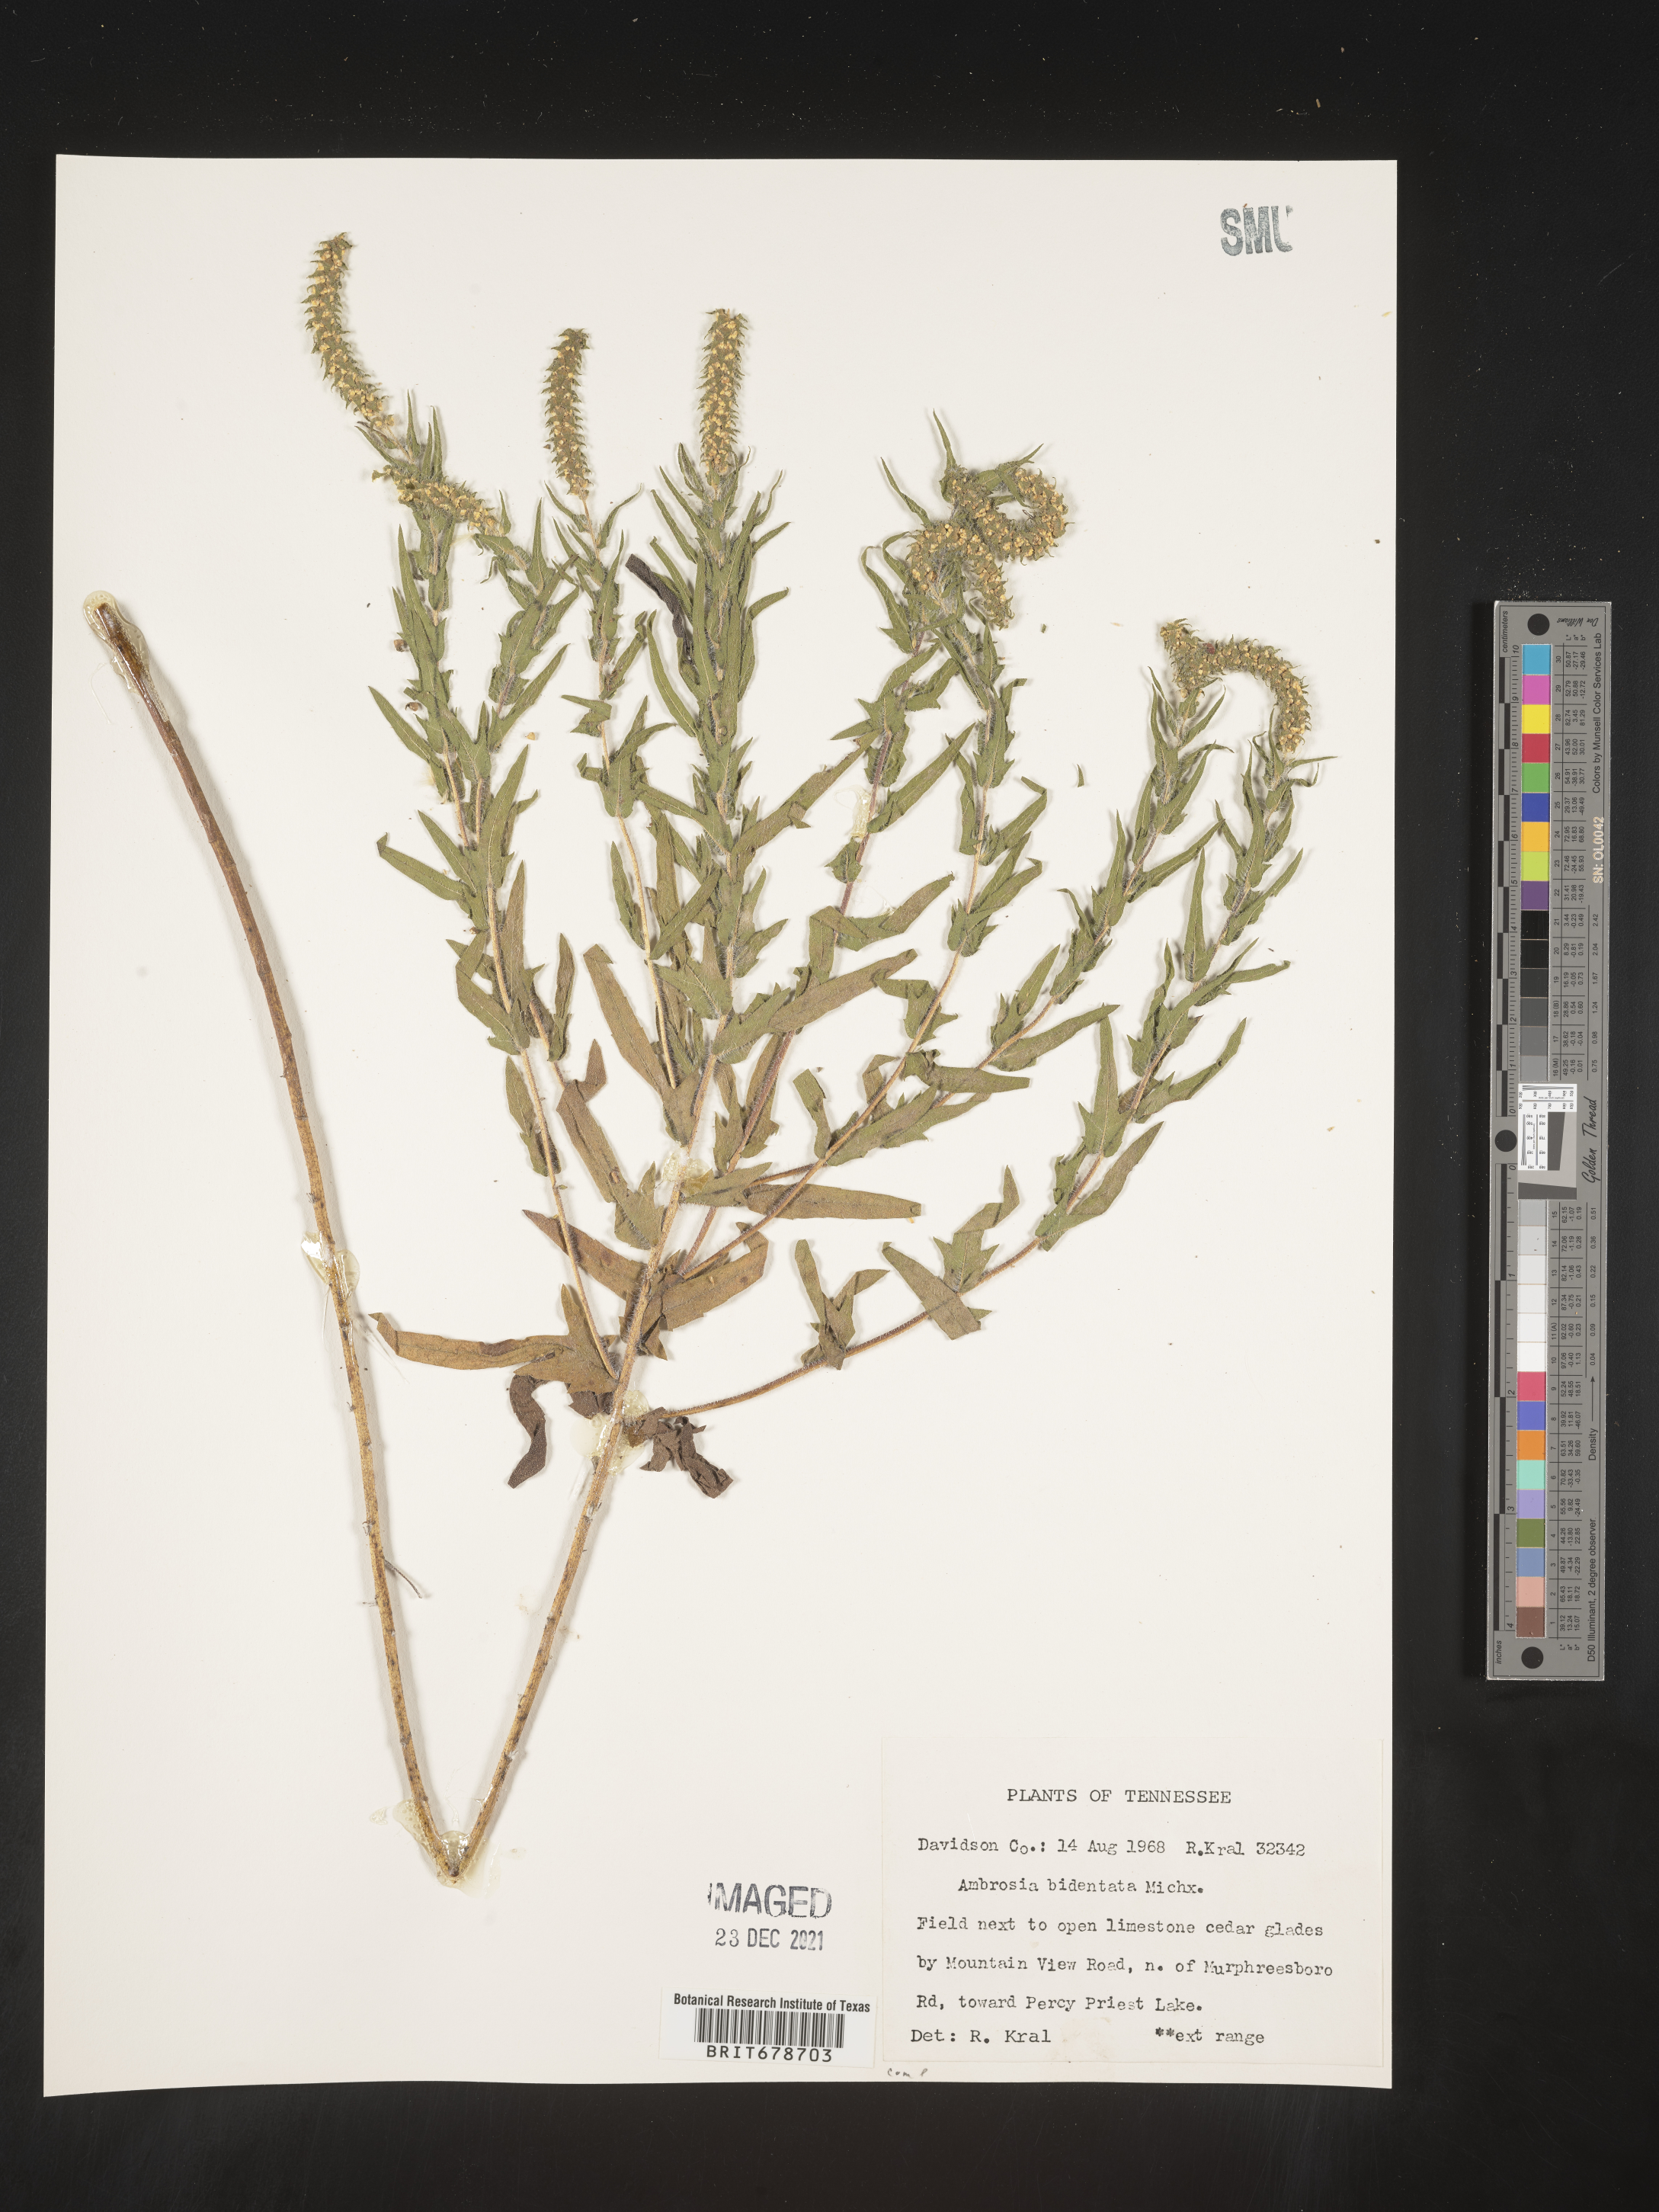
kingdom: Plantae
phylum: Tracheophyta
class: Magnoliopsida
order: Asterales
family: Asteraceae
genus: Ambrosia
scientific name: Ambrosia bidentata
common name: Southern ragweed
